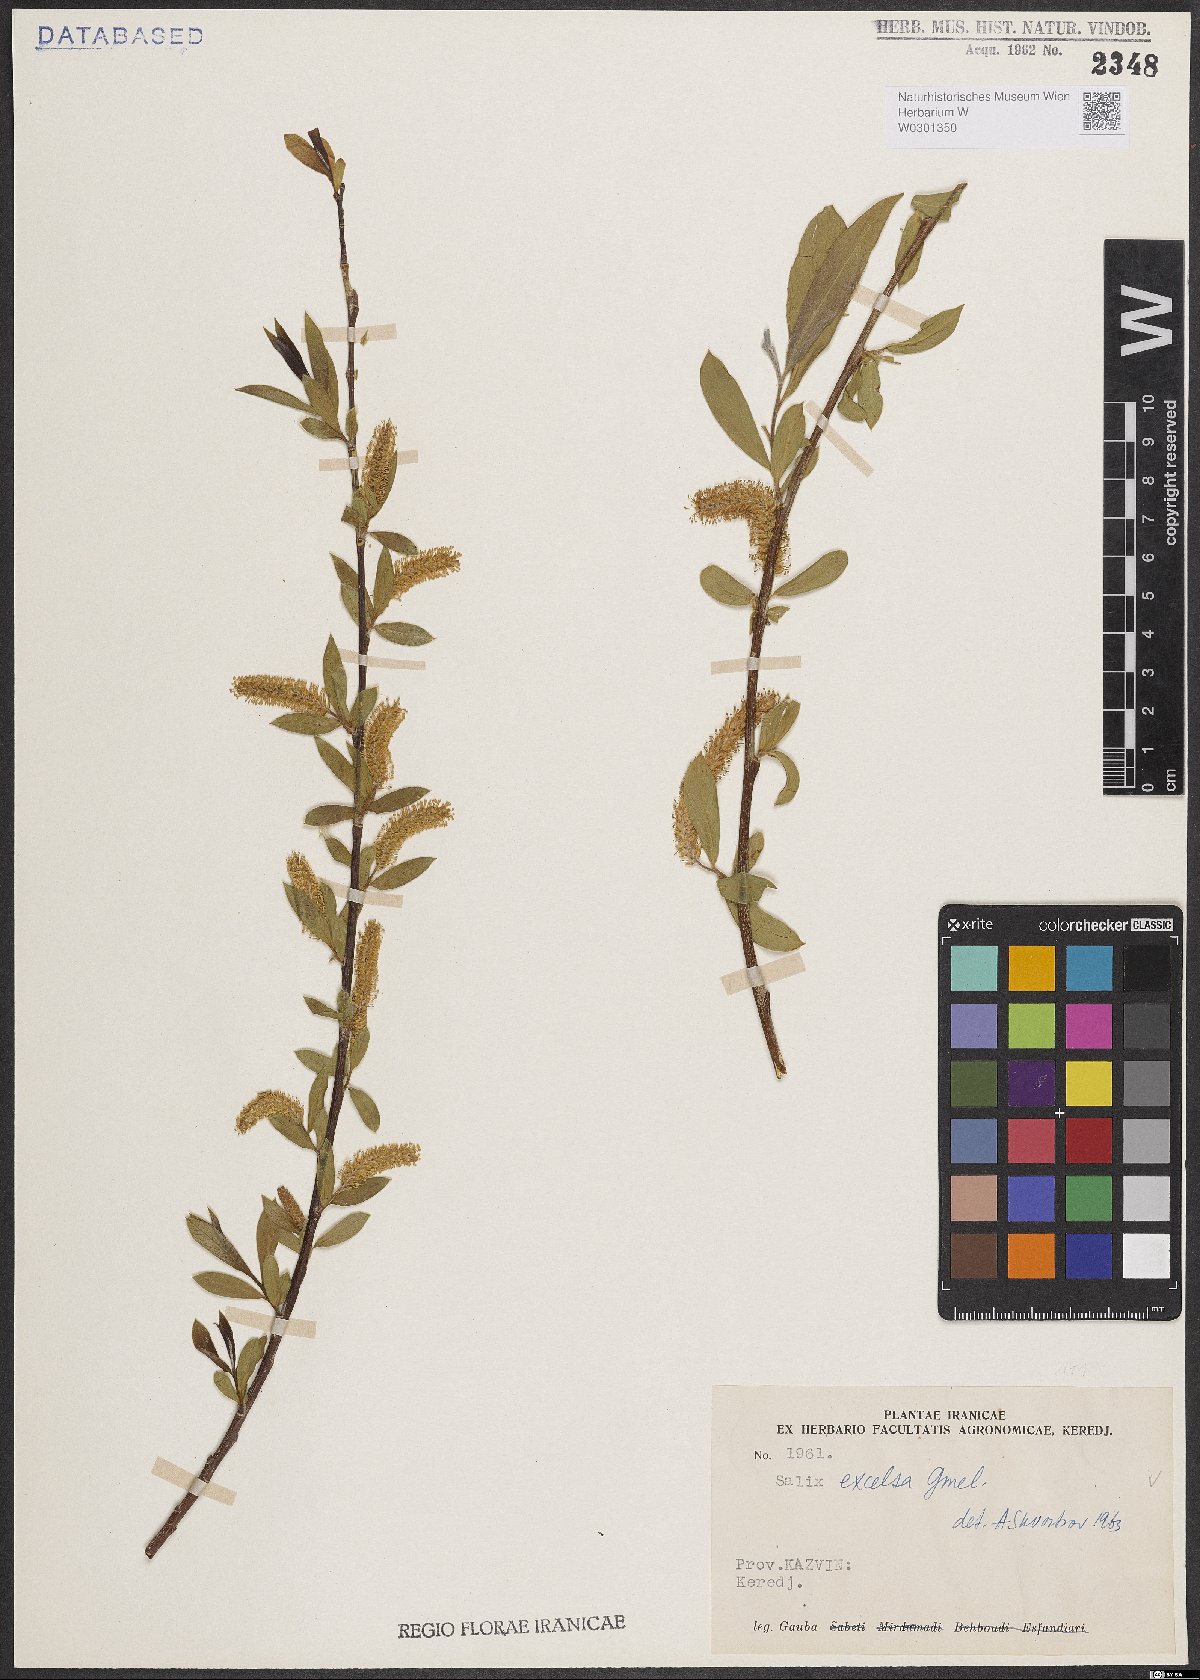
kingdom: Plantae
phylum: Tracheophyta
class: Magnoliopsida
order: Malpighiales
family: Salicaceae
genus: Salix
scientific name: Salix excelsa
